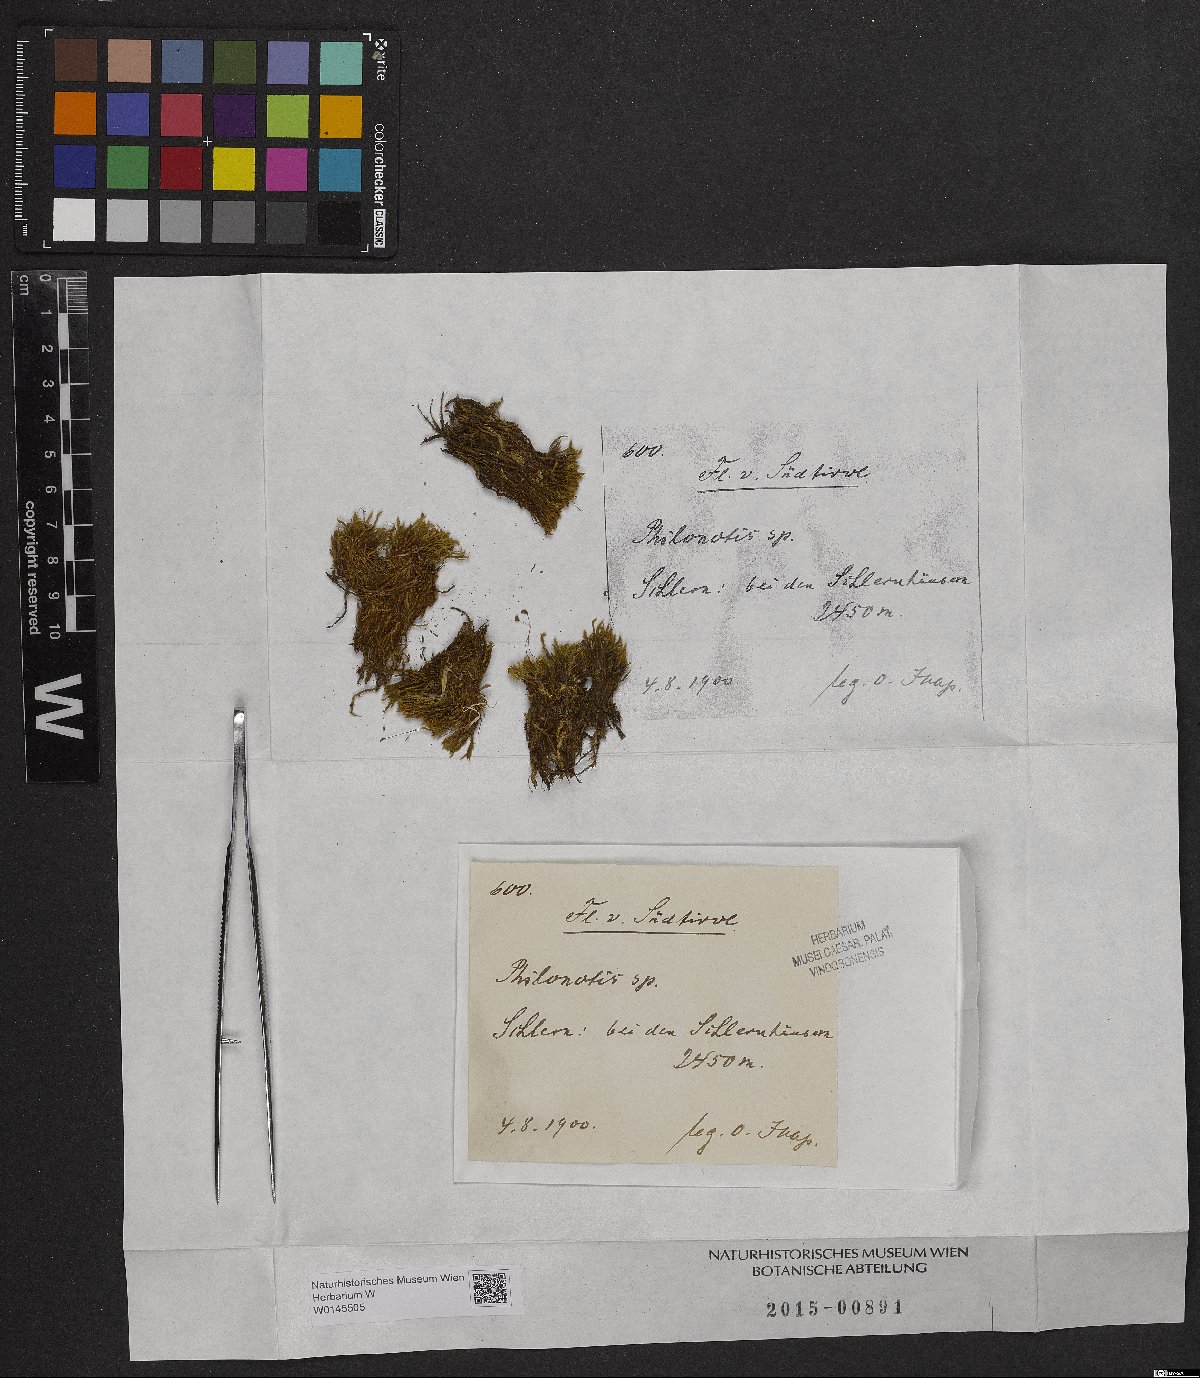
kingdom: Plantae
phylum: Bryophyta
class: Bryopsida
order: Bartramiales
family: Bartramiaceae
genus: Philonotis
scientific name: Philonotis
